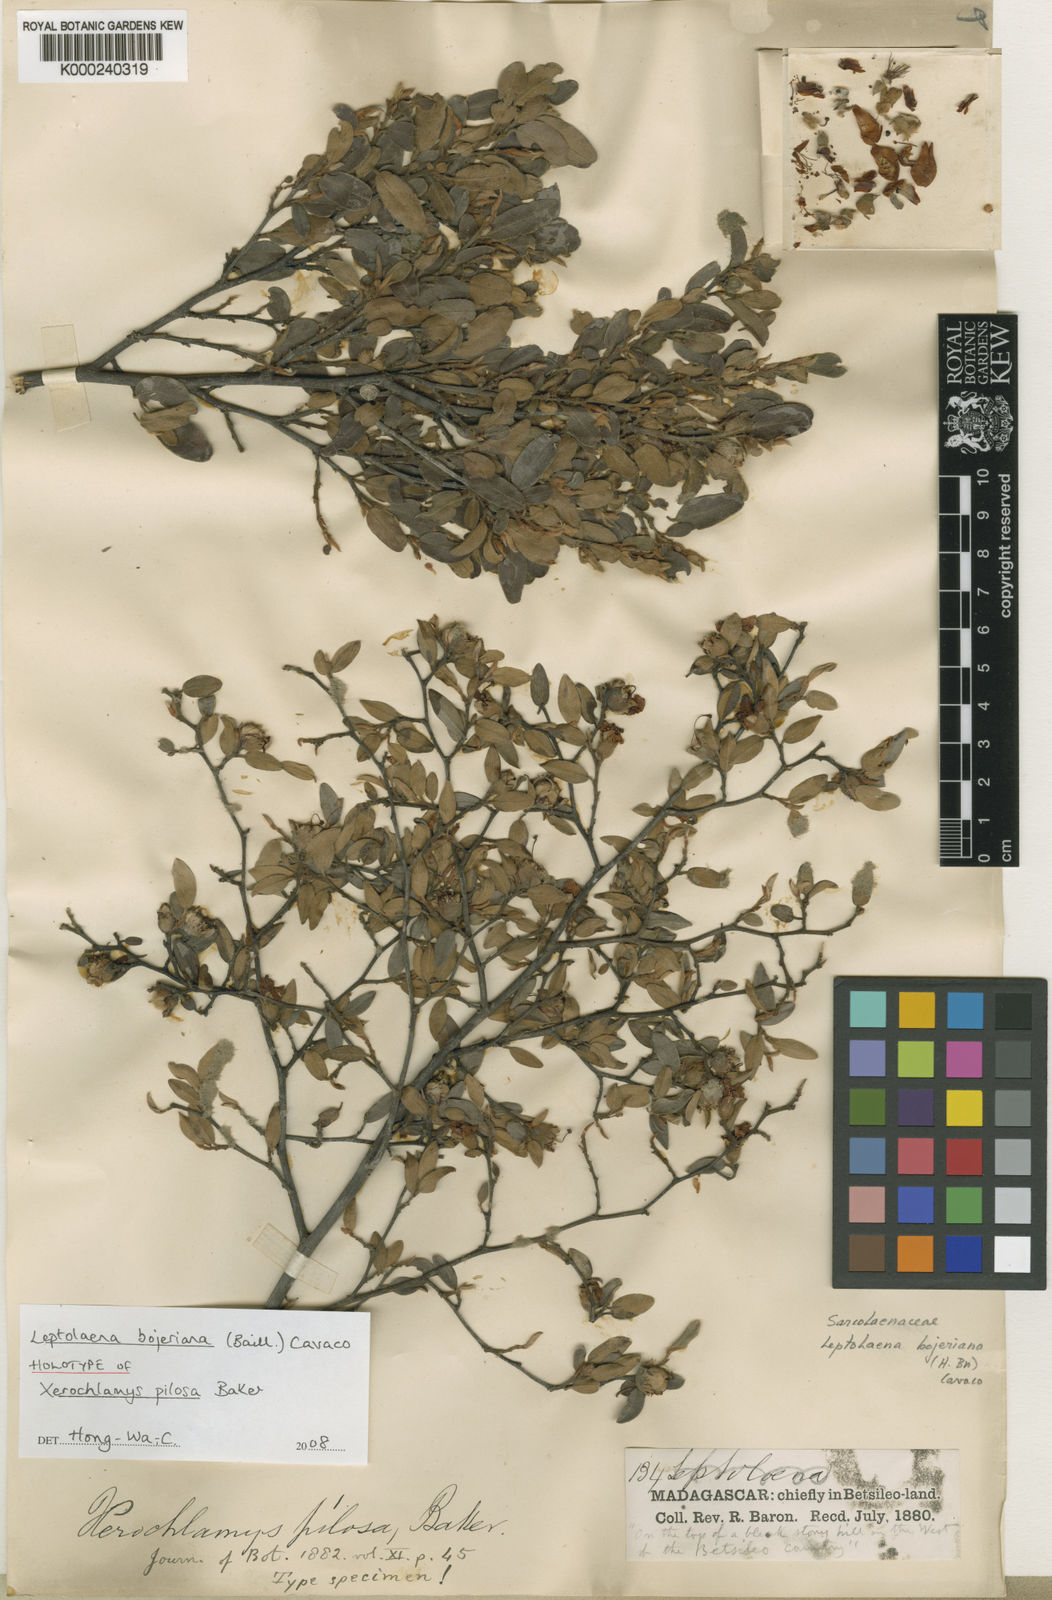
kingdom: Plantae
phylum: Tracheophyta
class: Magnoliopsida
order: Malvales
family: Sarcolaenaceae
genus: Xerochlamys
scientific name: Xerochlamys bojeriana
